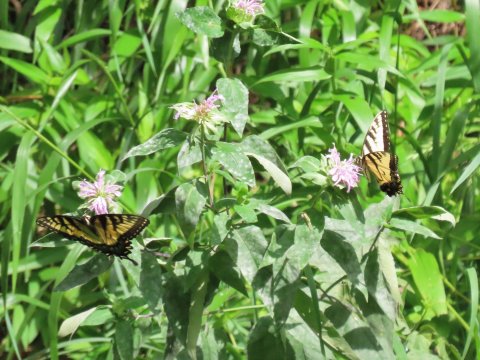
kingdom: Animalia
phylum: Arthropoda
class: Insecta
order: Lepidoptera
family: Papilionidae
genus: Pterourus
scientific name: Pterourus glaucus
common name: Eastern Tiger Swallowtail
